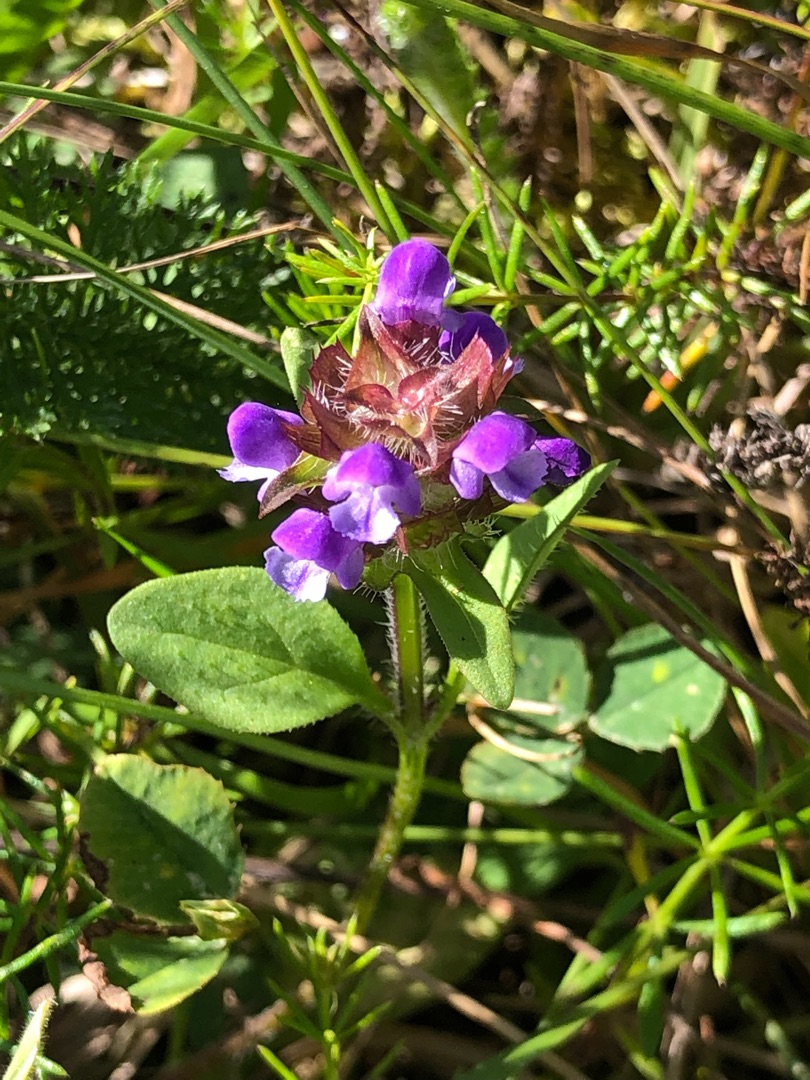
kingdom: Plantae
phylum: Tracheophyta
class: Magnoliopsida
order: Lamiales
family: Lamiaceae
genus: Prunella
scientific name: Prunella vulgaris
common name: Almindelig brunelle
